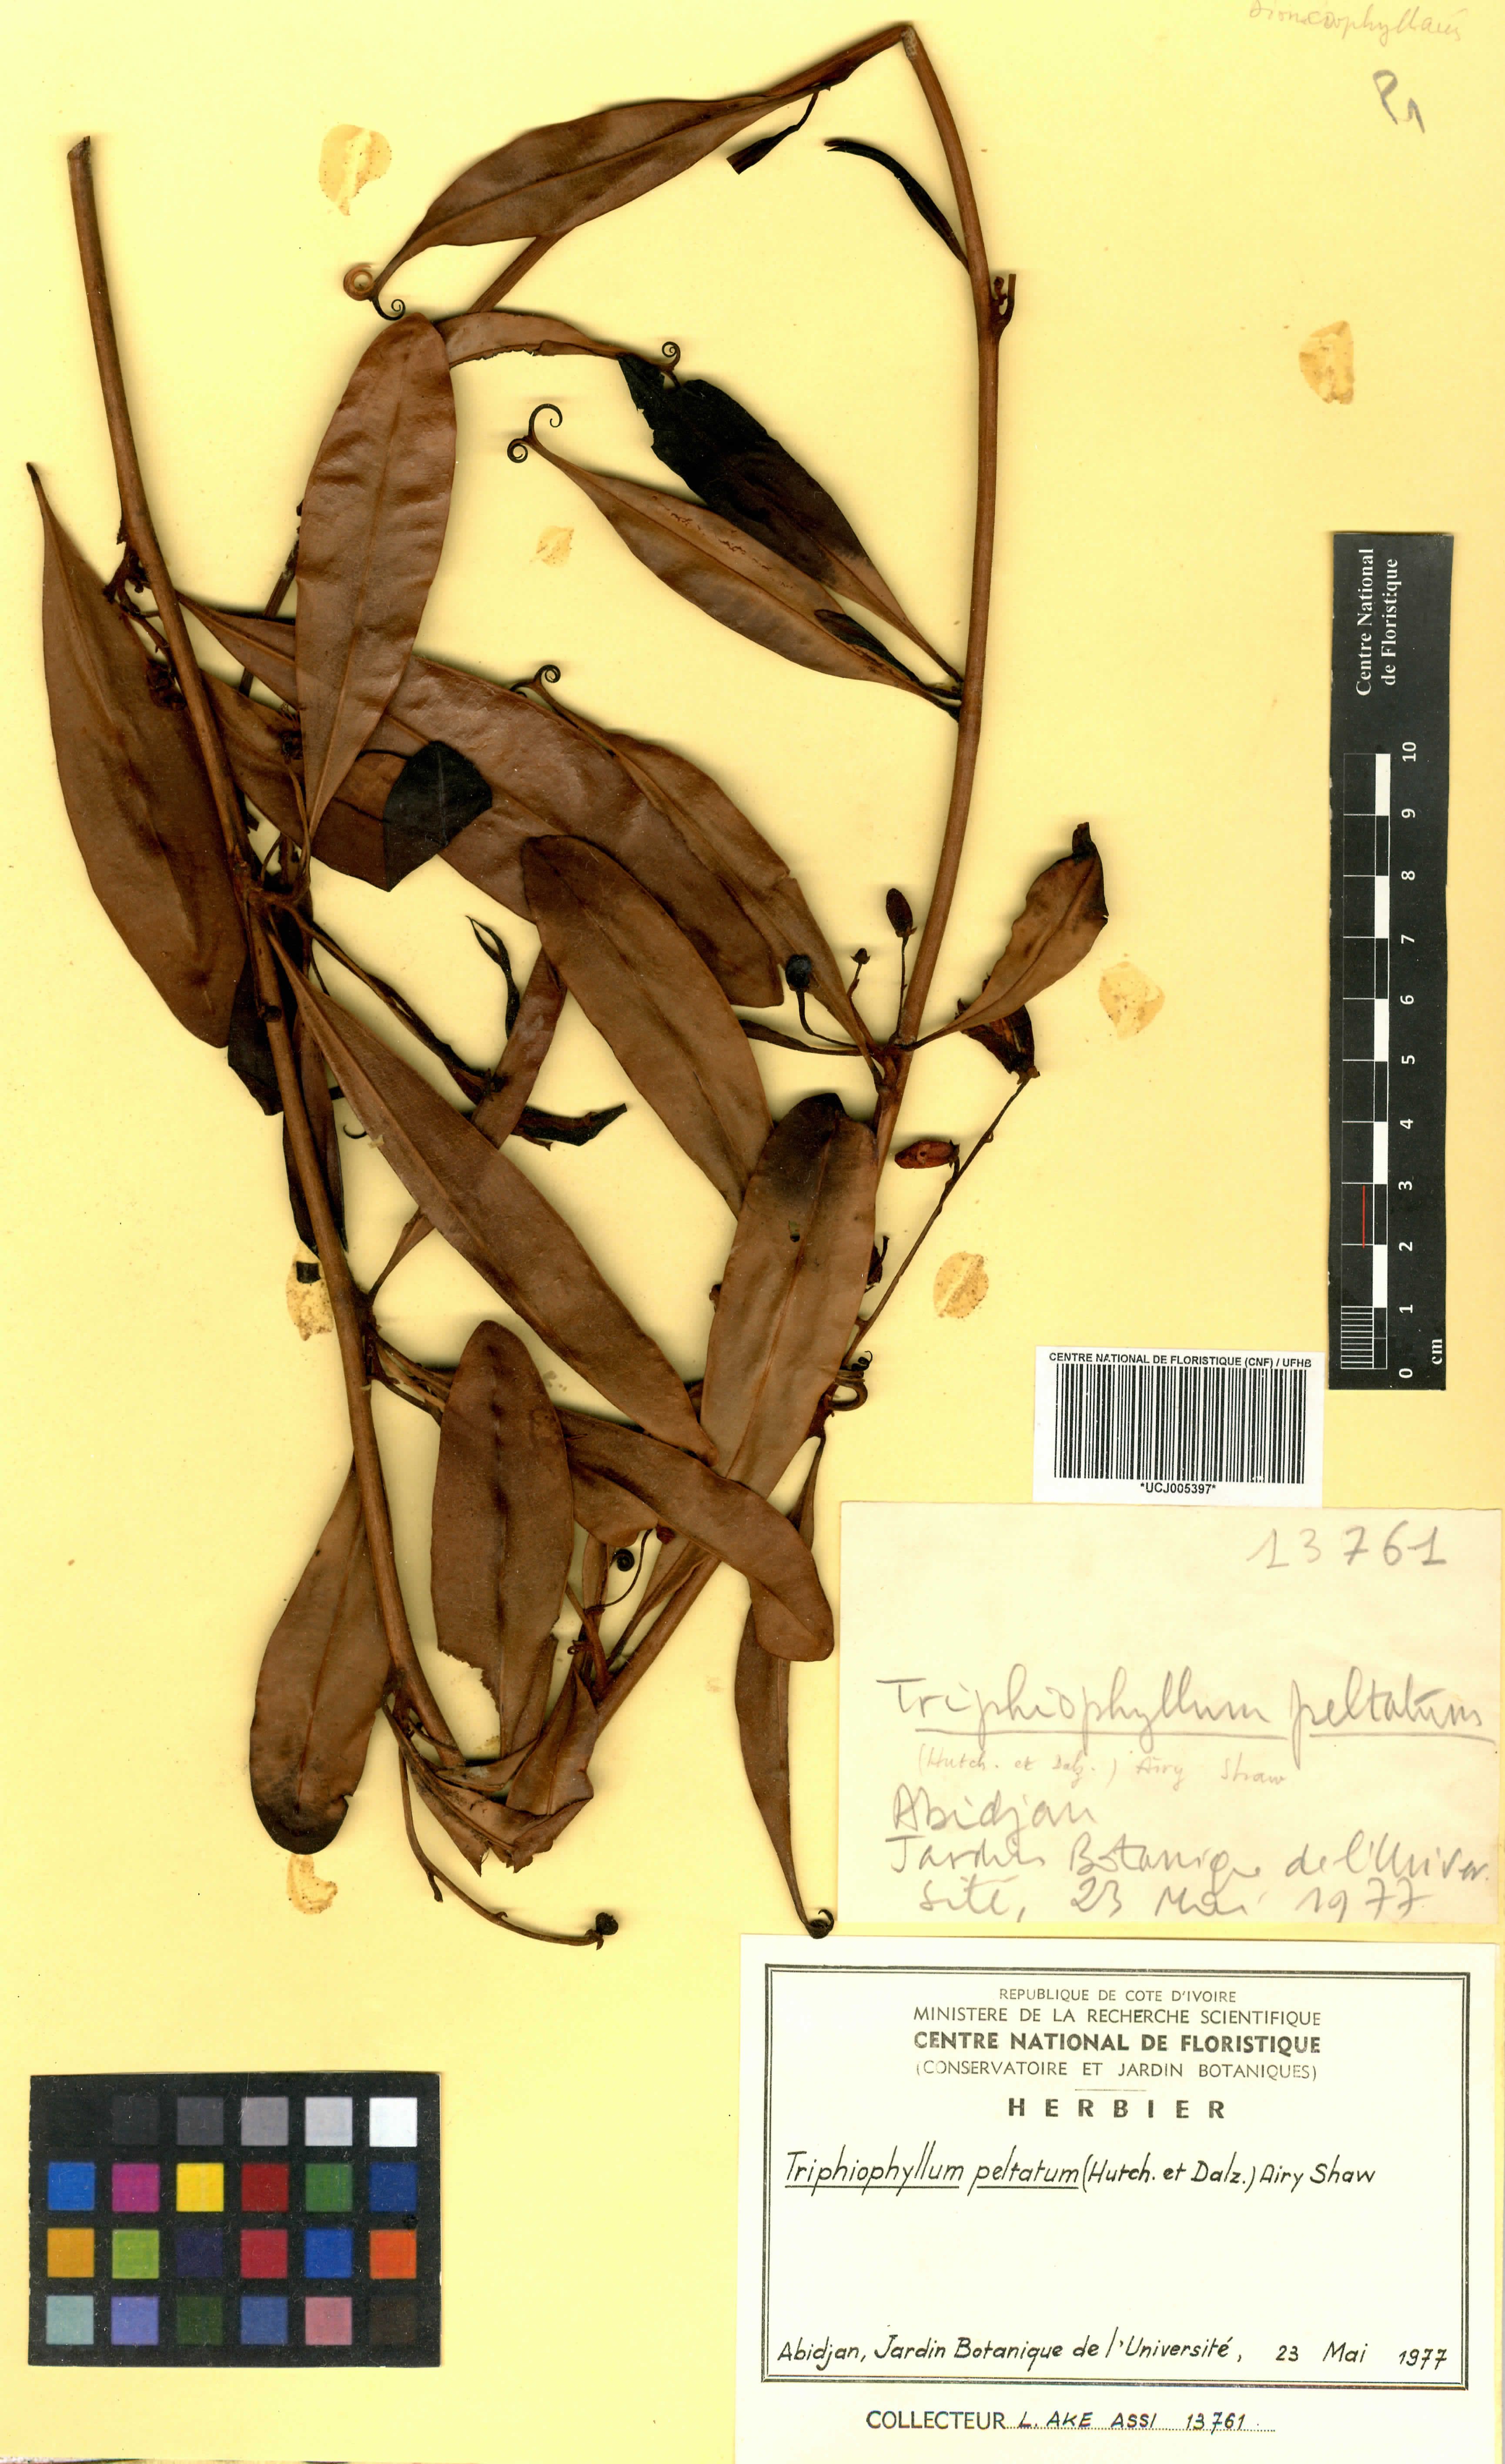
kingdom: Plantae
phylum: Tracheophyta
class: Magnoliopsida
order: Caryophyllales
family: Dioncophyllaceae
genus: Triphyophyllum
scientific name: Triphyophyllum peltatum
